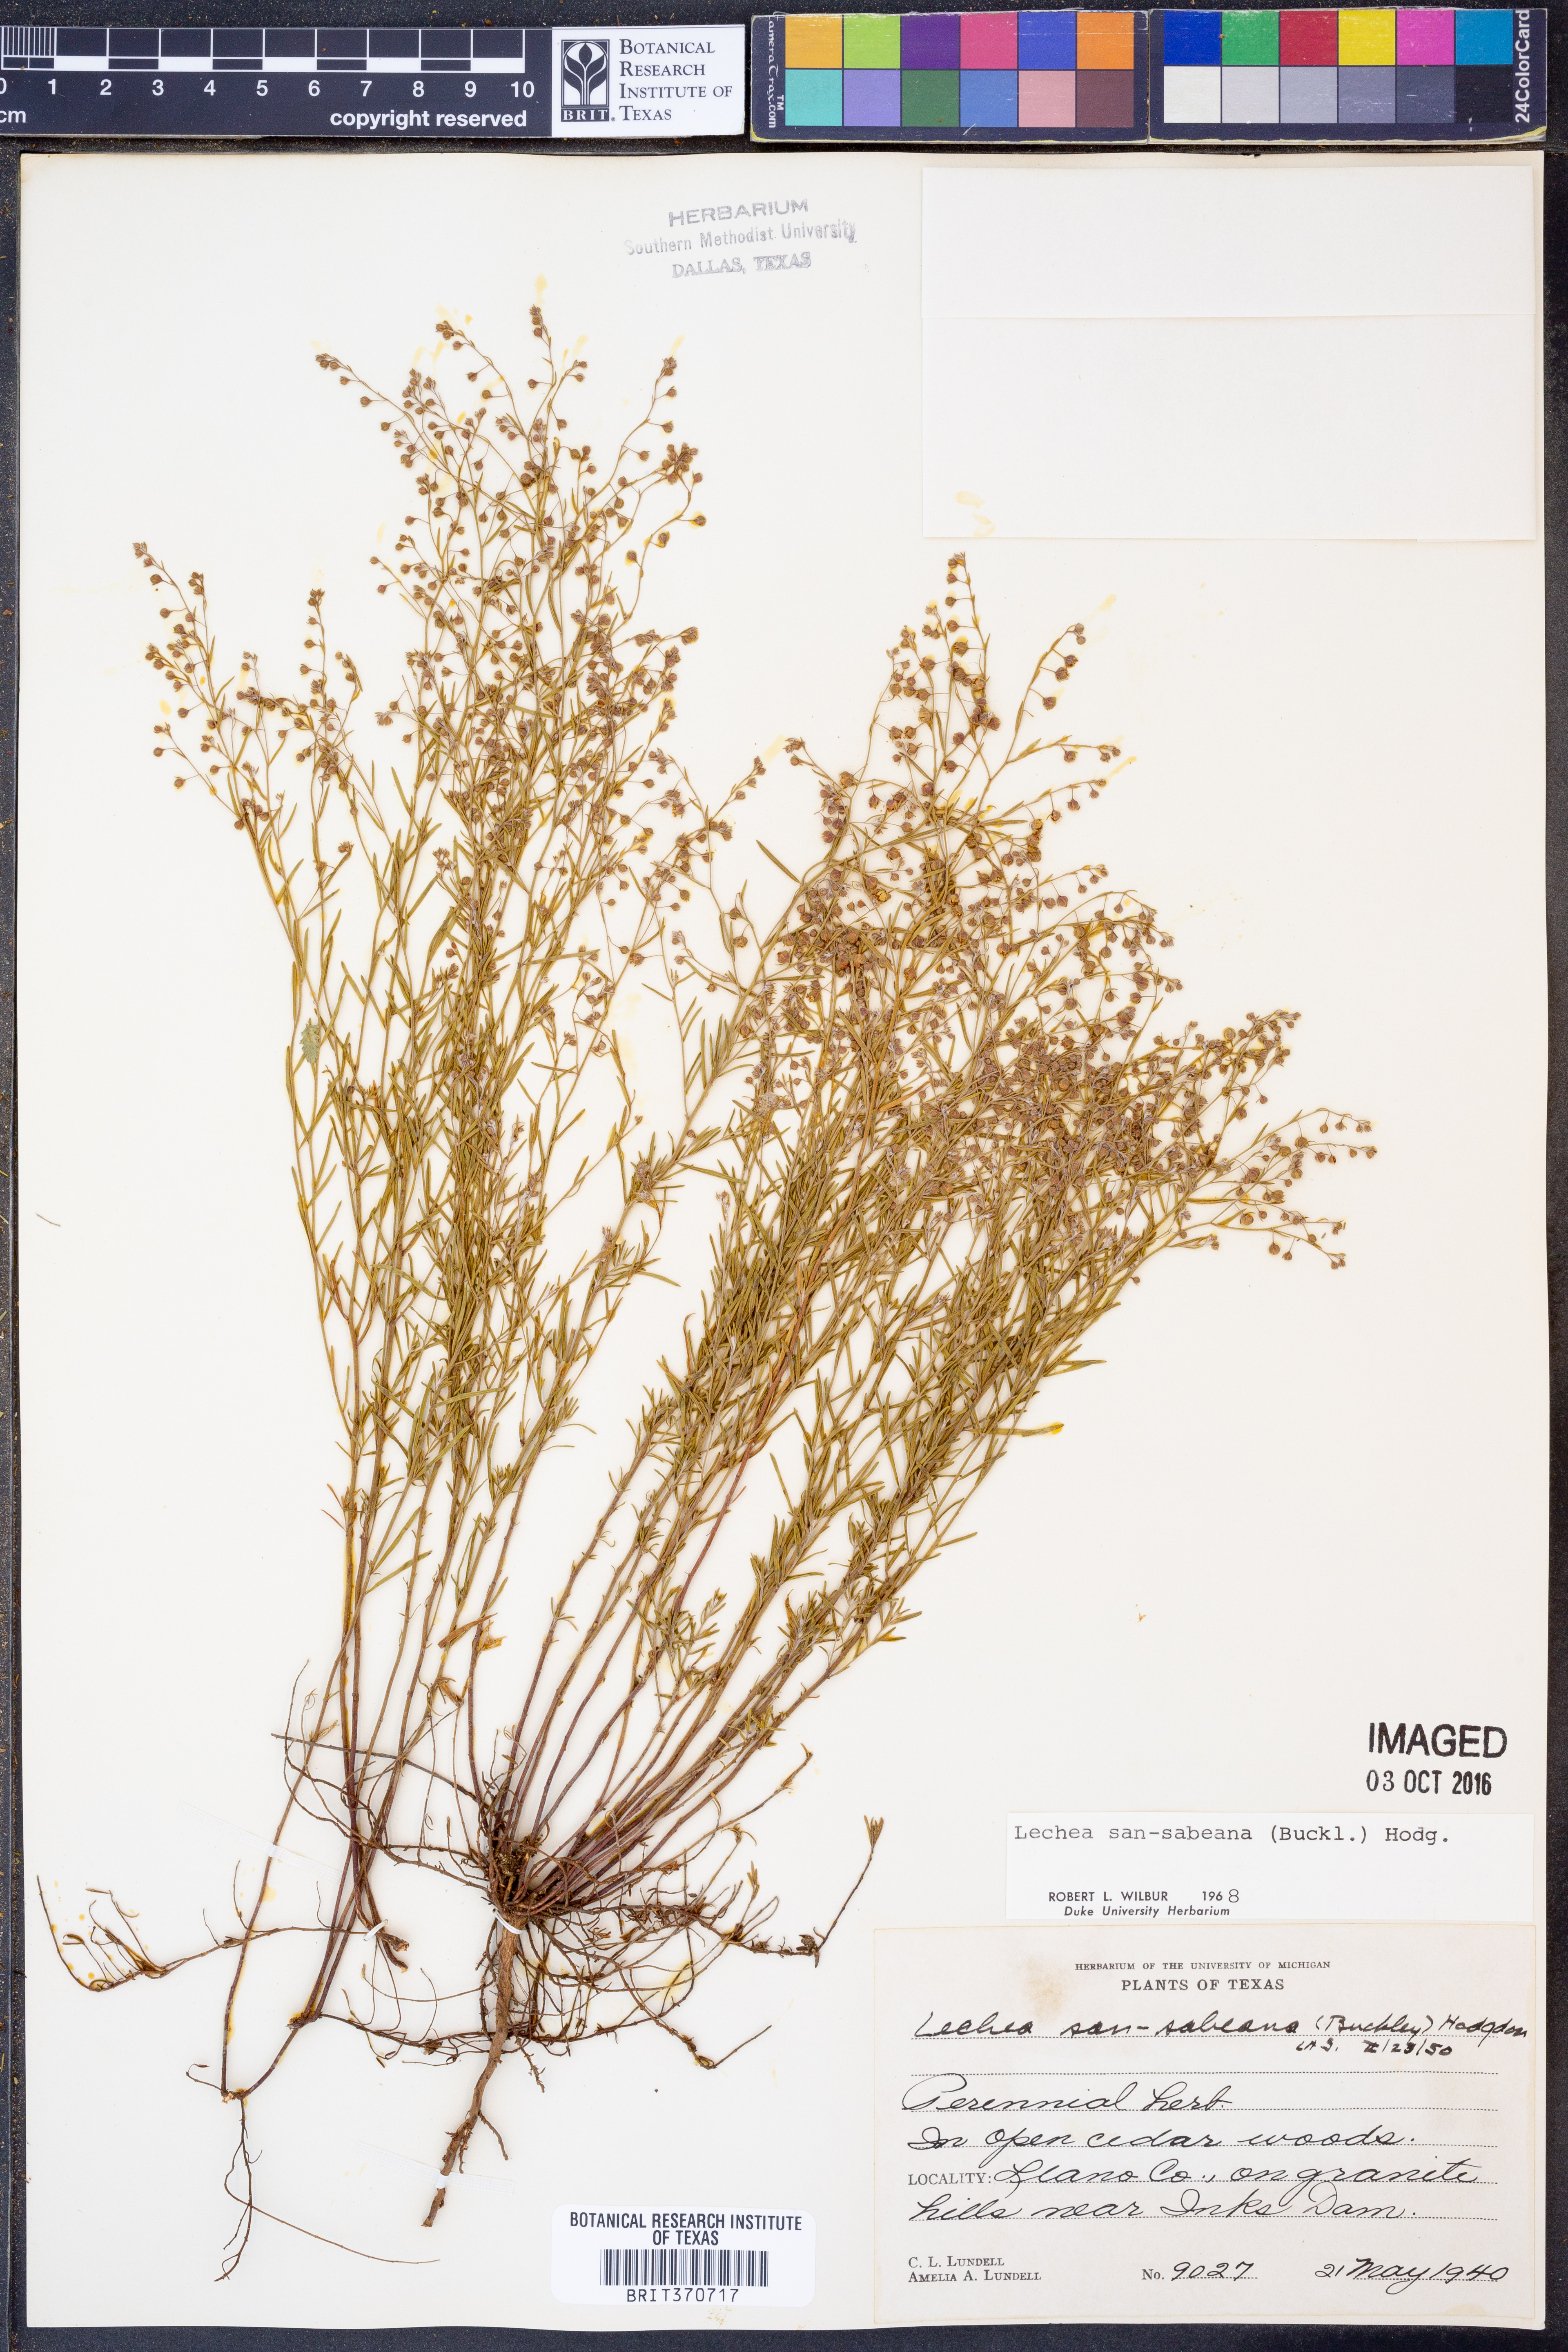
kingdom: Plantae
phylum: Tracheophyta
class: Magnoliopsida
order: Malvales
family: Cistaceae
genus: Lechea
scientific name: Lechea san-sabeana
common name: San saba pinweed
